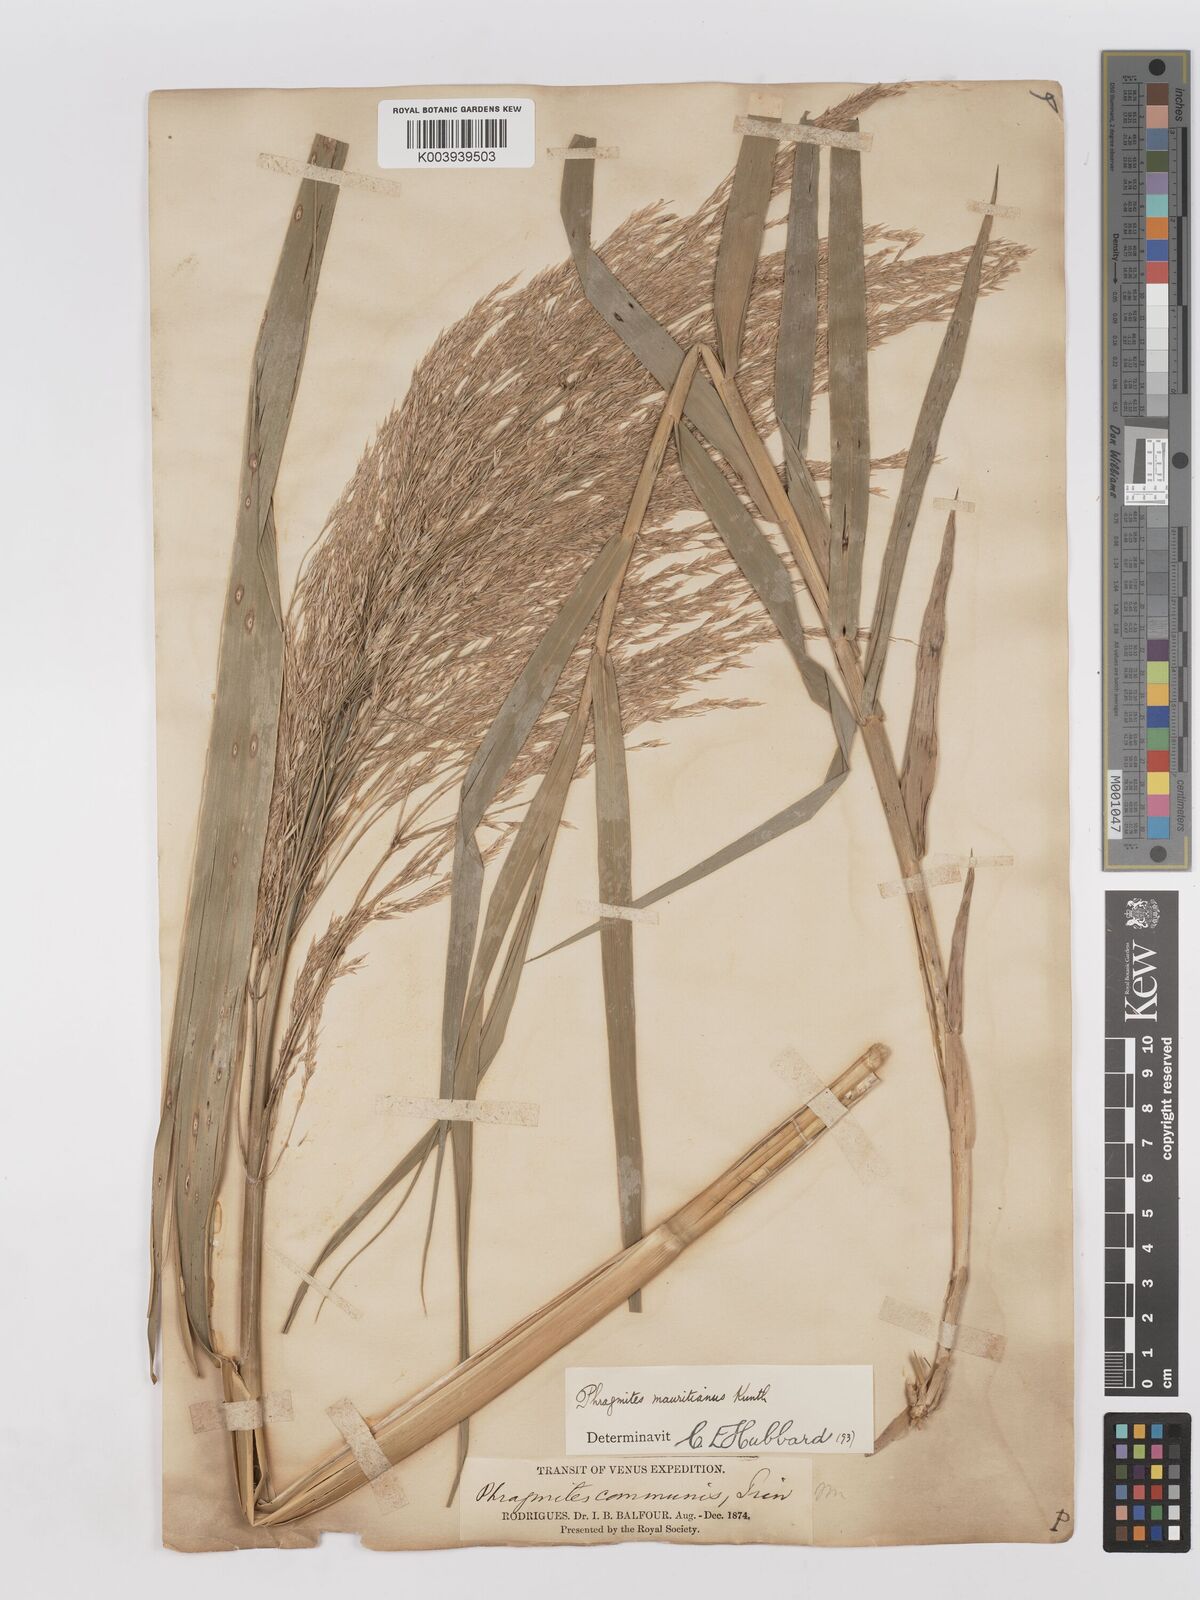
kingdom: Plantae
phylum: Tracheophyta
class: Liliopsida
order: Poales
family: Poaceae
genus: Phragmites
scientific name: Phragmites mauritianus
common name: Reed grass
